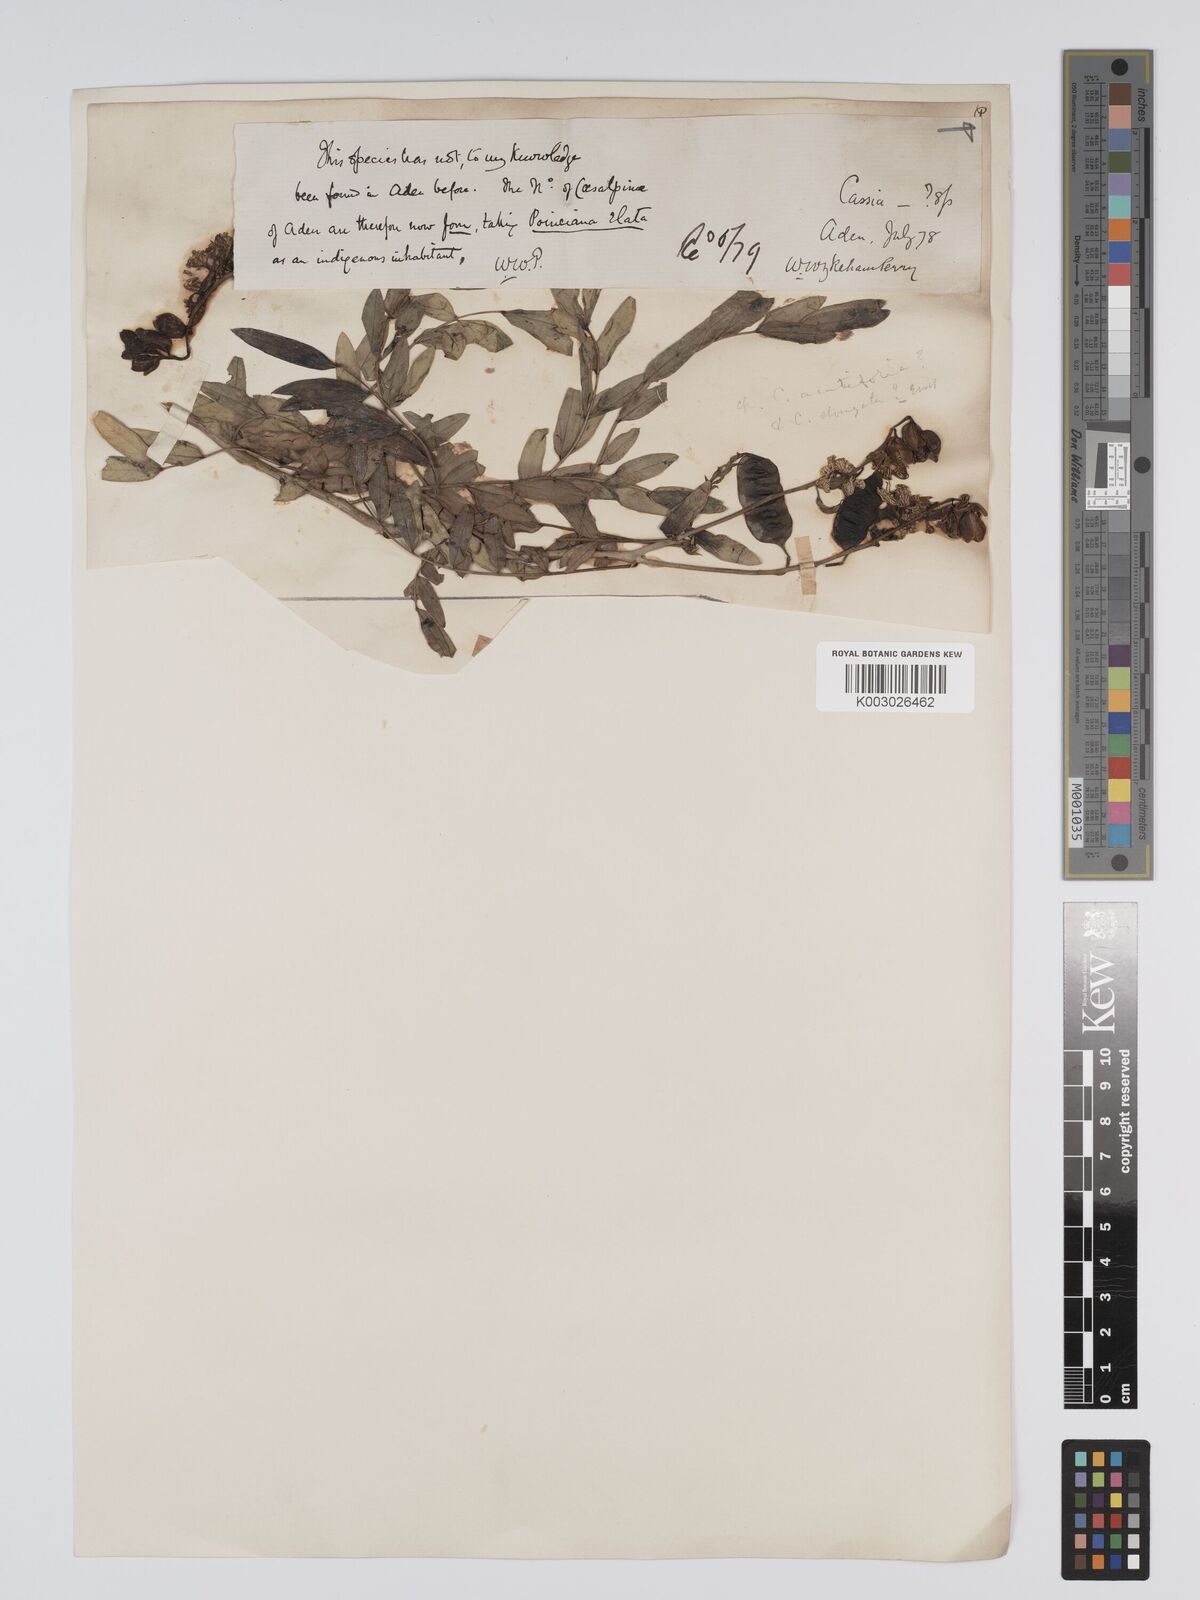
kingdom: Plantae
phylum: Tracheophyta
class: Magnoliopsida
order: Fabales
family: Fabaceae
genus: Senna
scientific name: Senna alexandrina
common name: True senna
